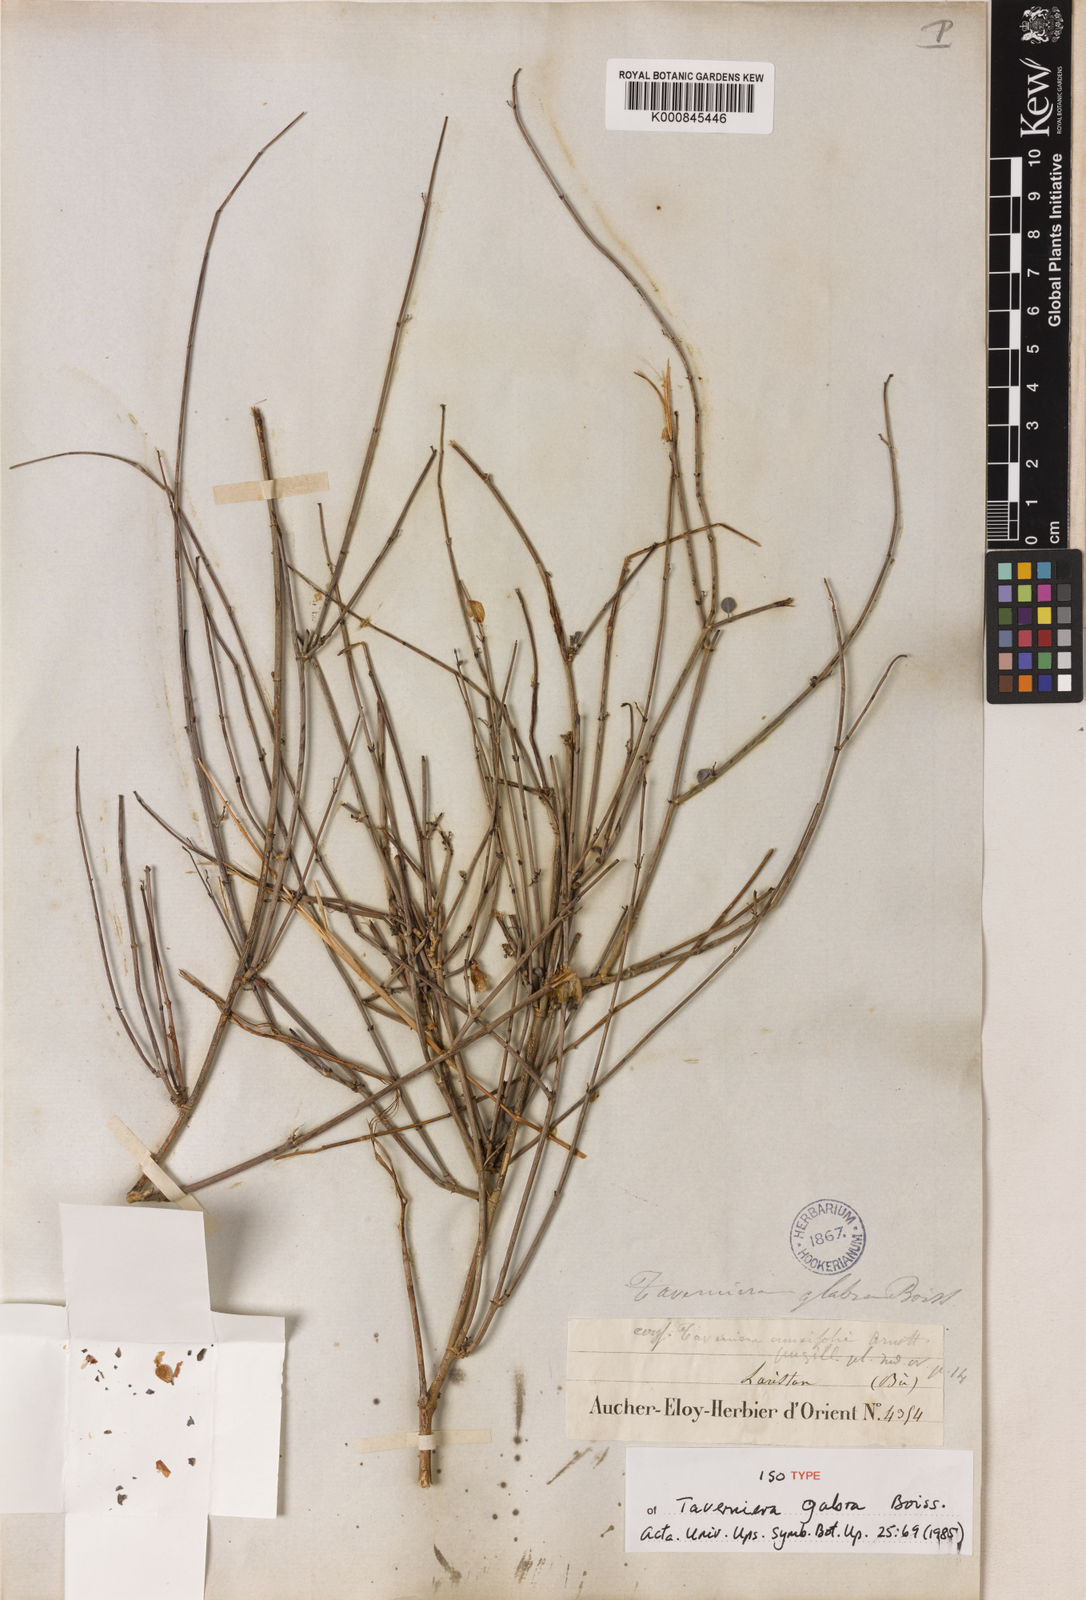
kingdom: Plantae
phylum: Tracheophyta
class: Magnoliopsida
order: Fabales
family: Fabaceae
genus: Taverniera
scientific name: Taverniera
